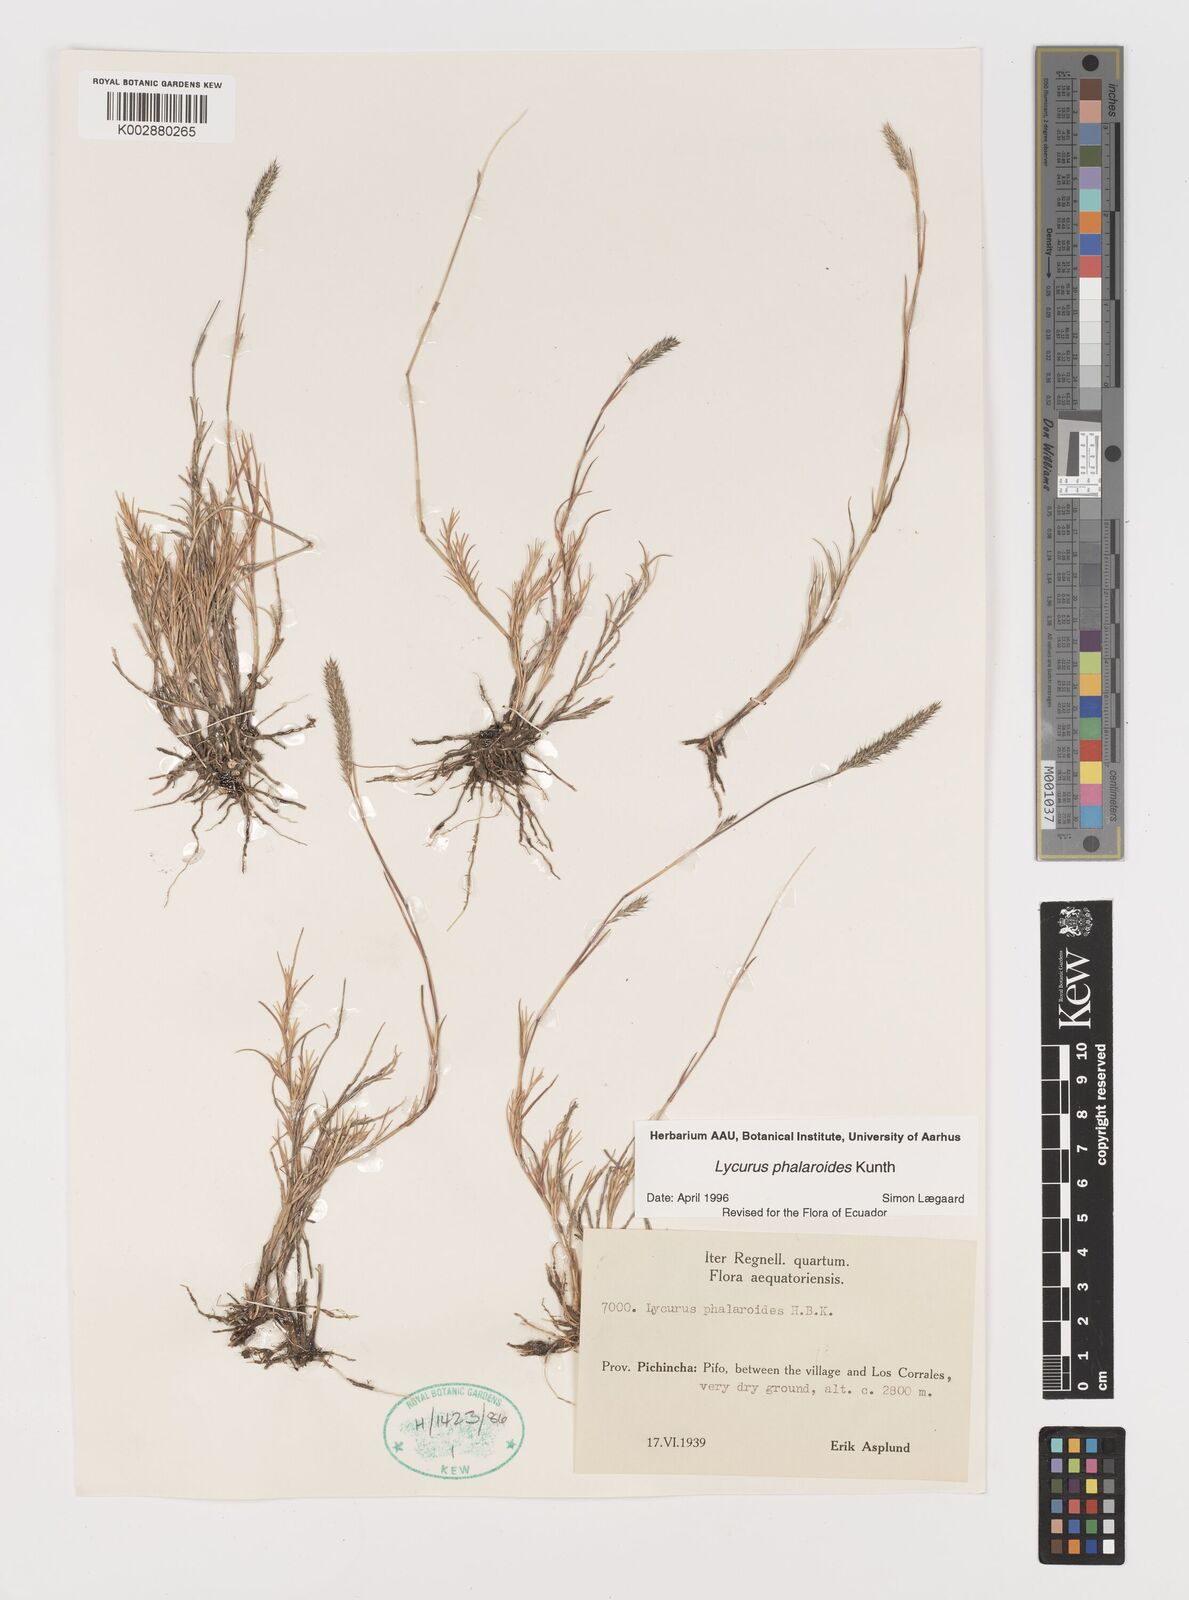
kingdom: Plantae
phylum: Tracheophyta
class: Liliopsida
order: Poales
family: Poaceae
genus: Muhlenbergia
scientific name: Muhlenbergia phalaroides
